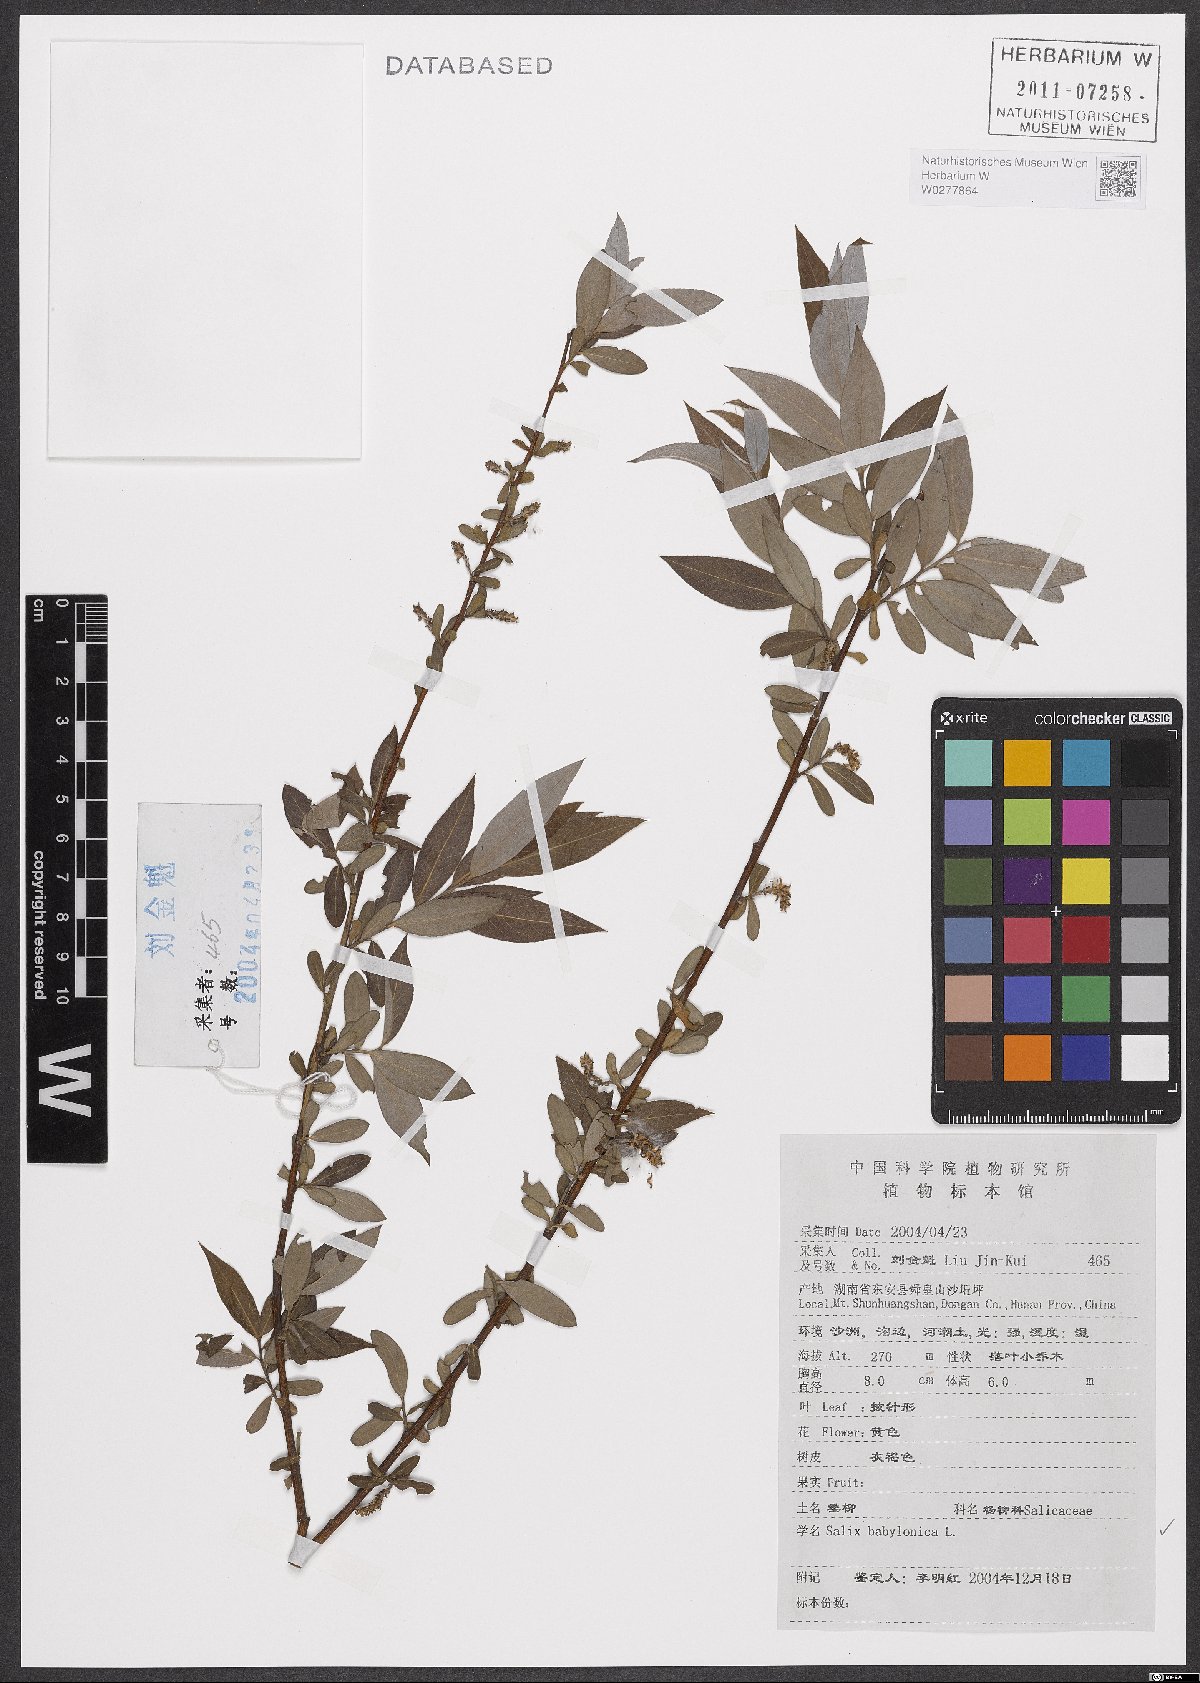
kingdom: Plantae
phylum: Tracheophyta
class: Magnoliopsida
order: Malpighiales
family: Salicaceae
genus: Salix
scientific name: Salix babylonica
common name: Weeping willow
